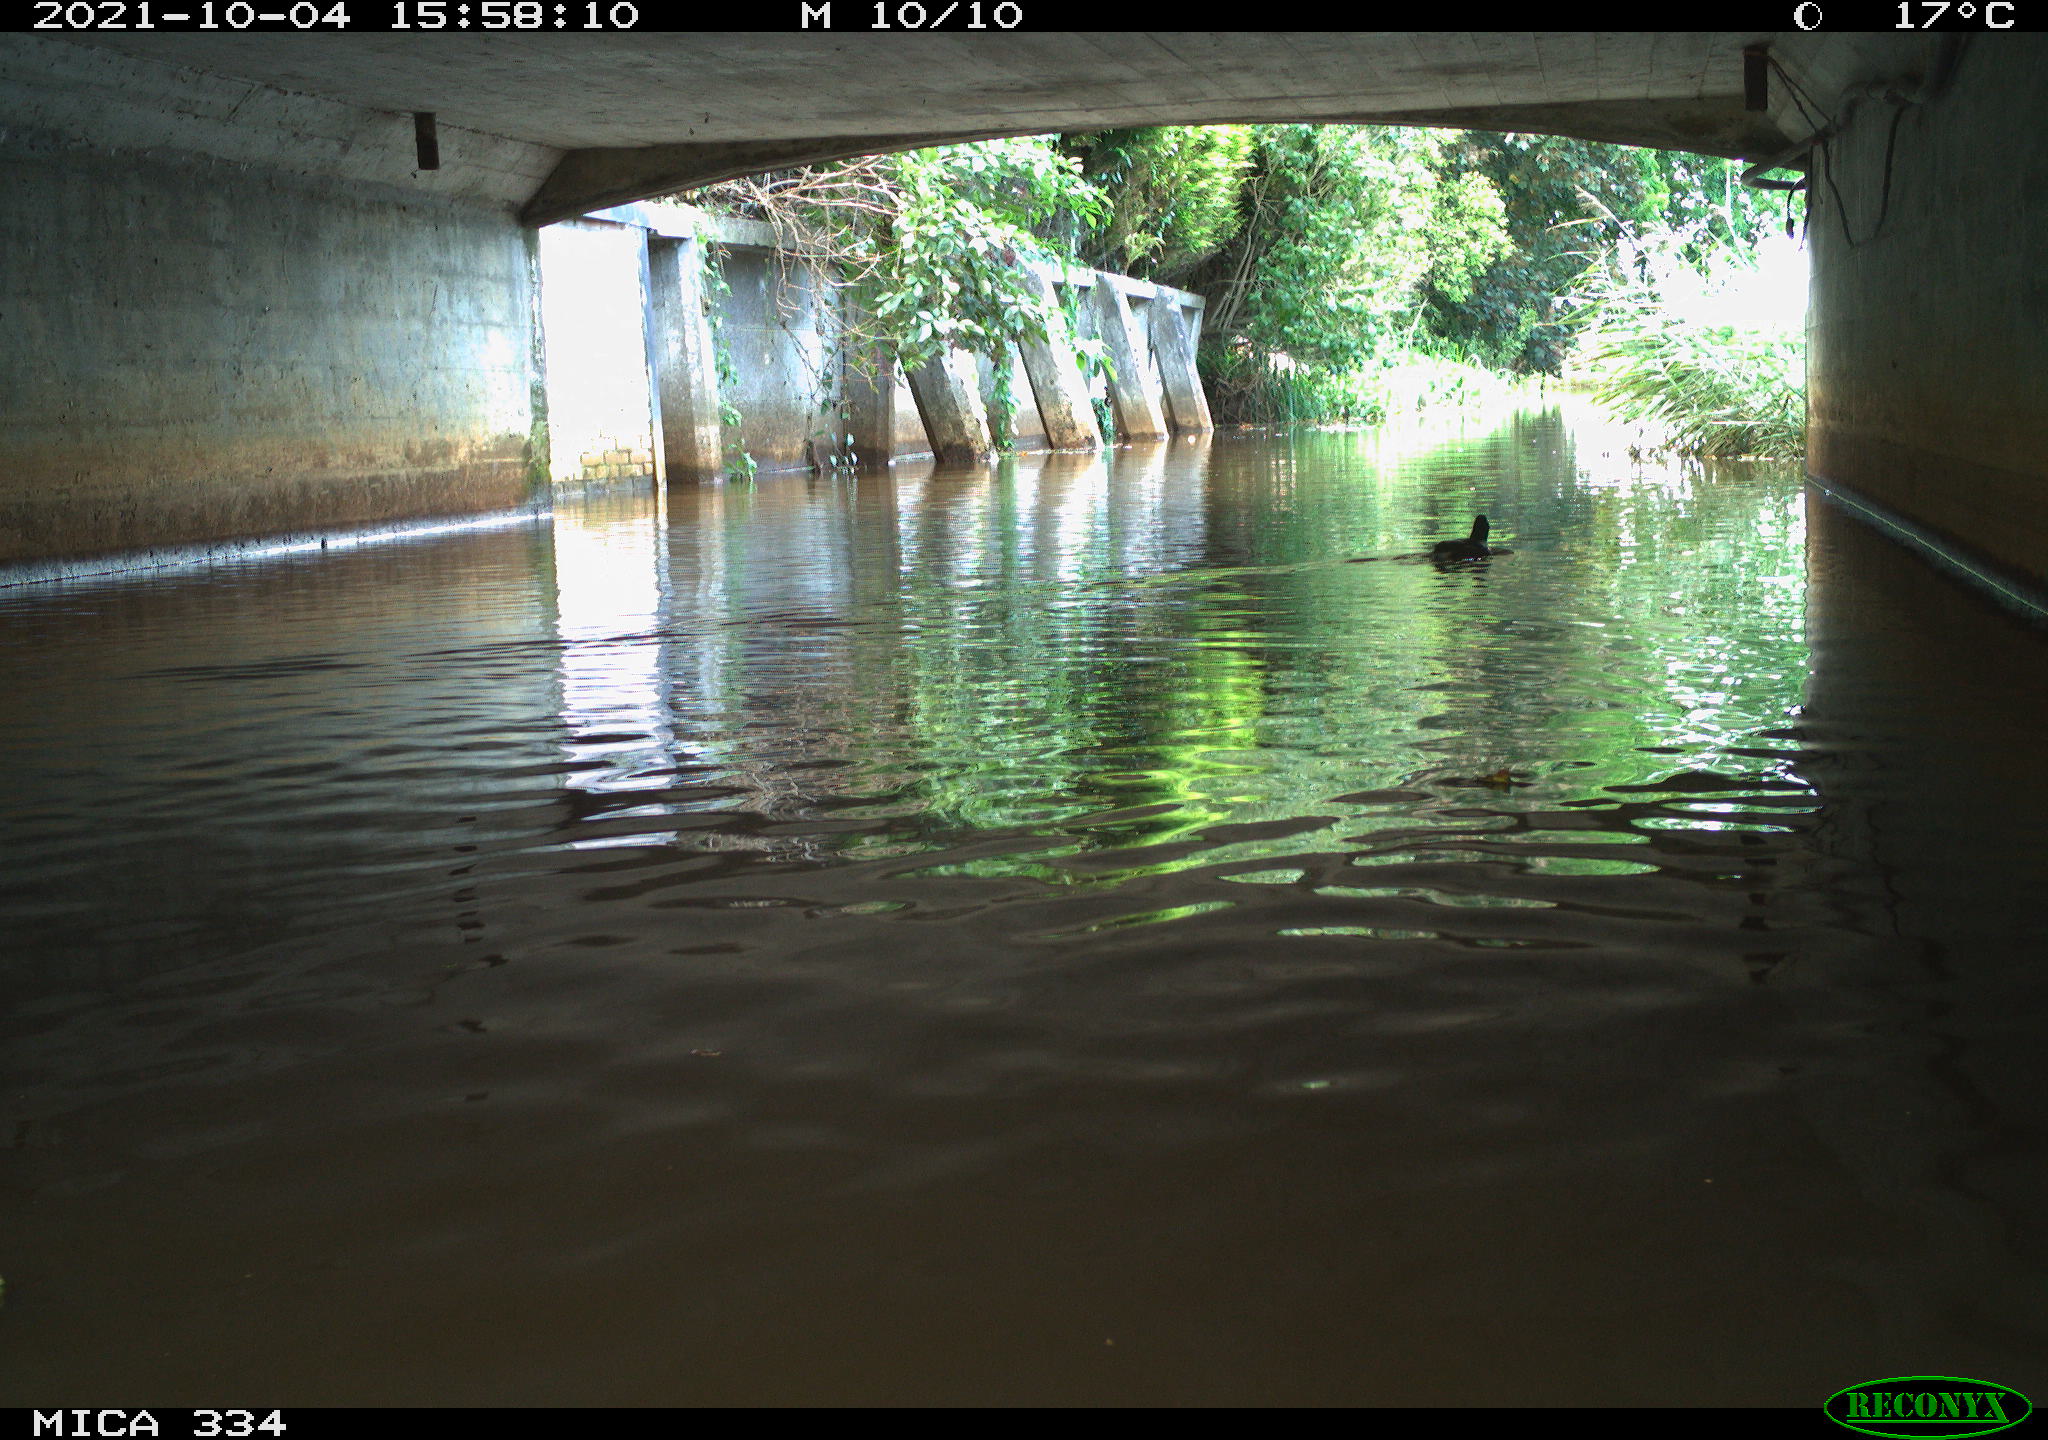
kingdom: Animalia
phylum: Chordata
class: Aves
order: Gruiformes
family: Rallidae
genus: Gallinula
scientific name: Gallinula chloropus
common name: Common moorhen
